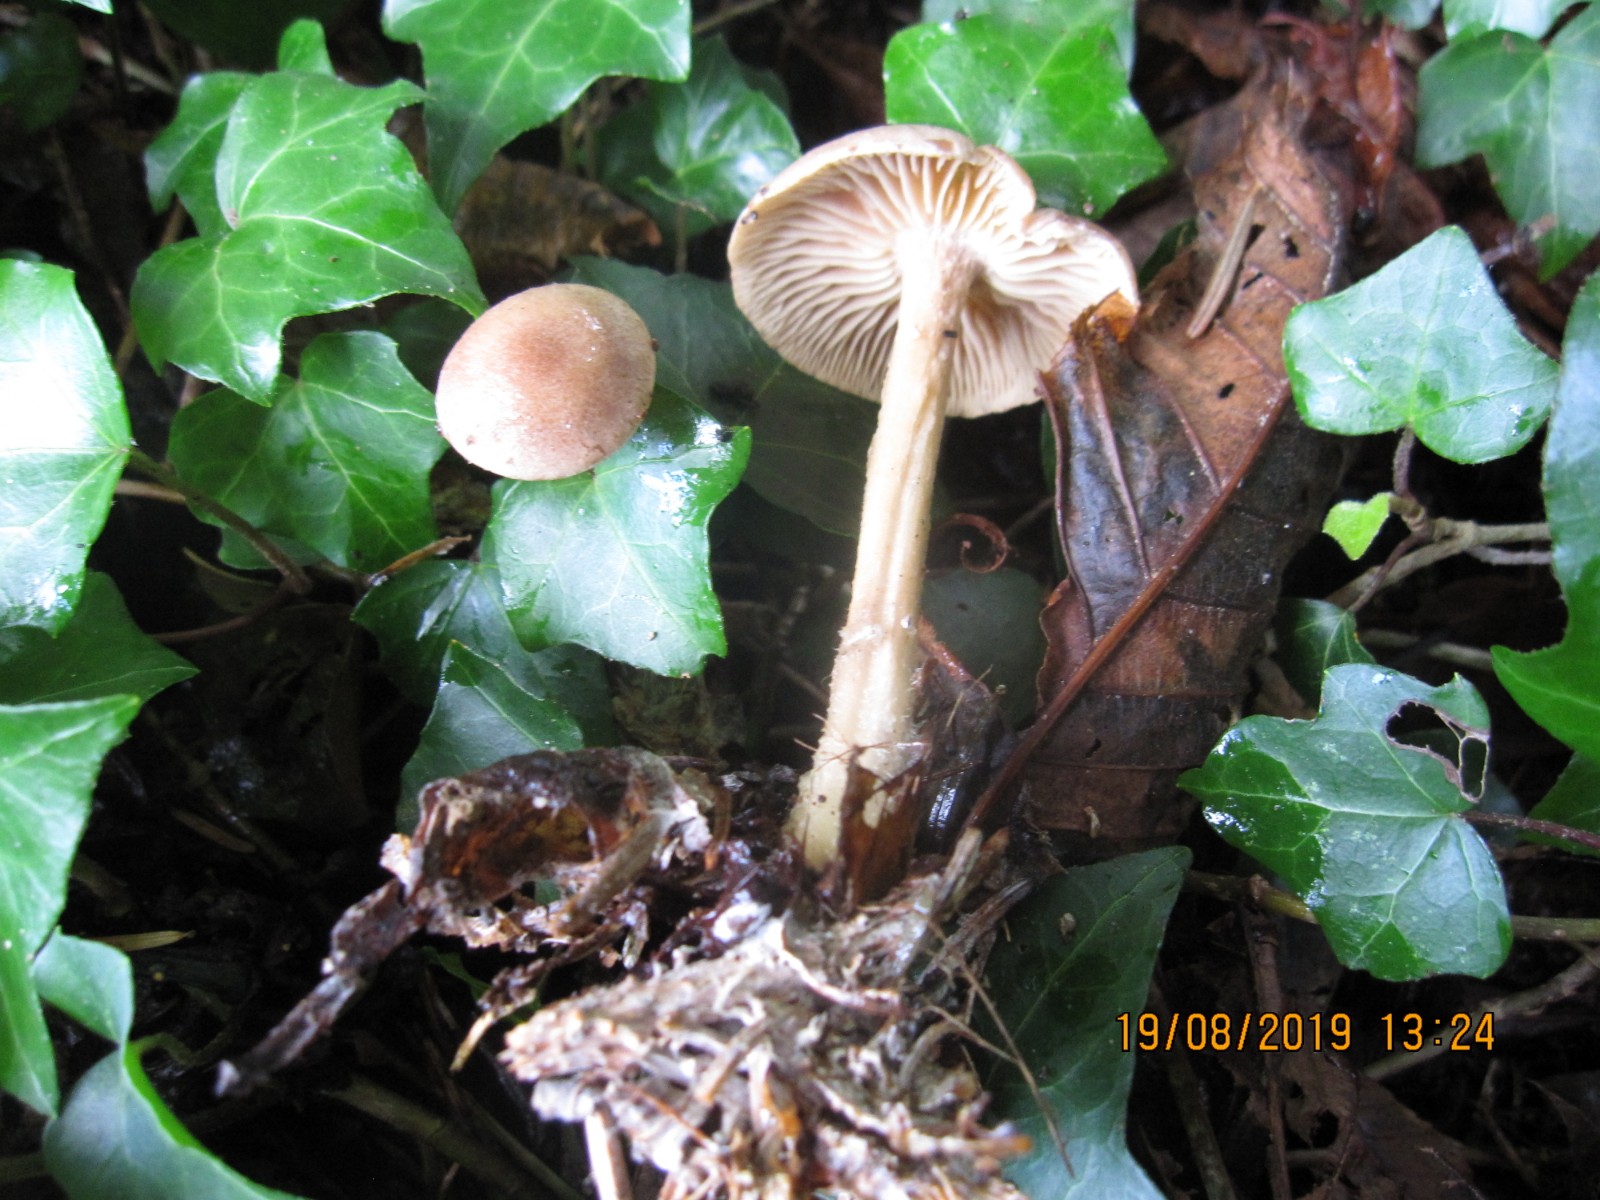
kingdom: Fungi
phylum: Basidiomycota
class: Agaricomycetes
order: Agaricales
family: Omphalotaceae
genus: Collybiopsis
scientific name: Collybiopsis peronata
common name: bestøvlet fladhat
